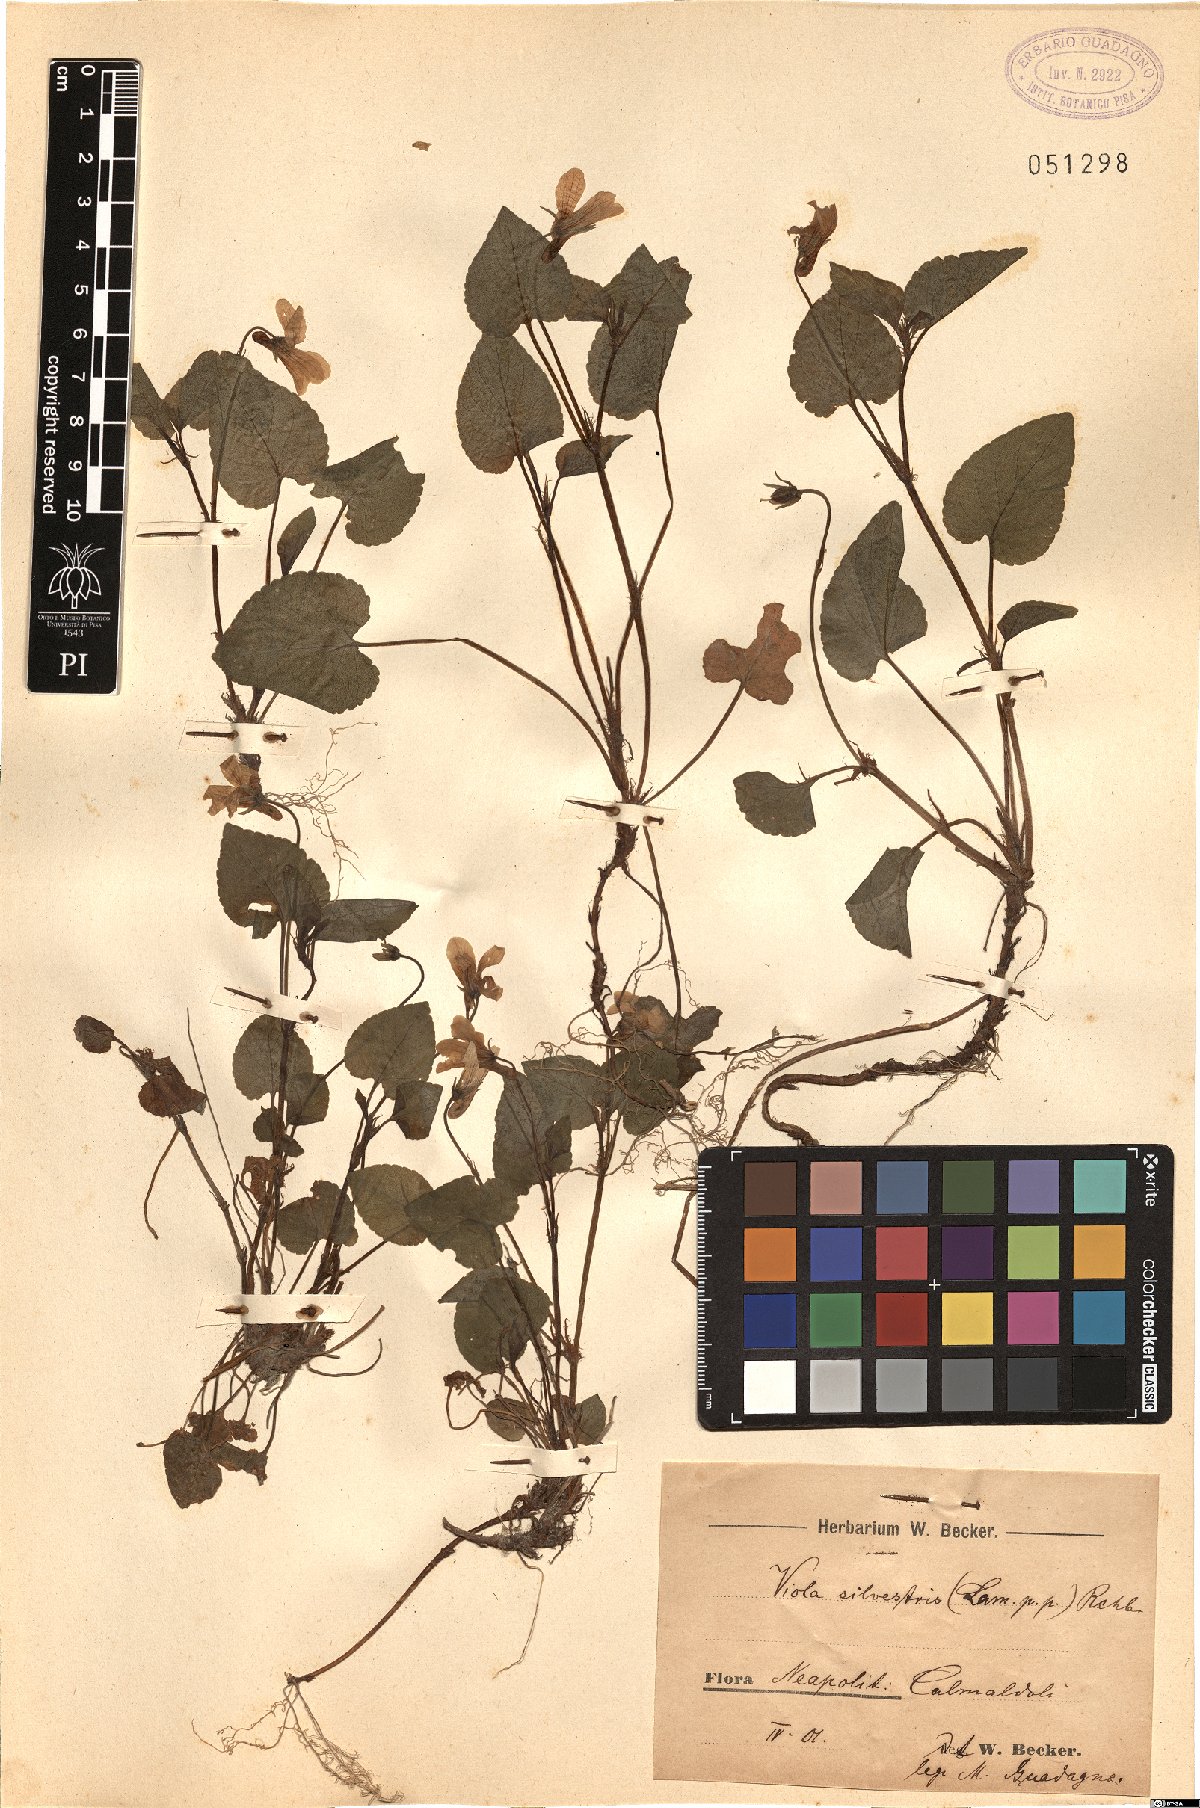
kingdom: Plantae
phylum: Tracheophyta
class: Magnoliopsida
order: Malpighiales
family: Violaceae
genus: Viola
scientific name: Viola canina
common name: Heath dog-violet
